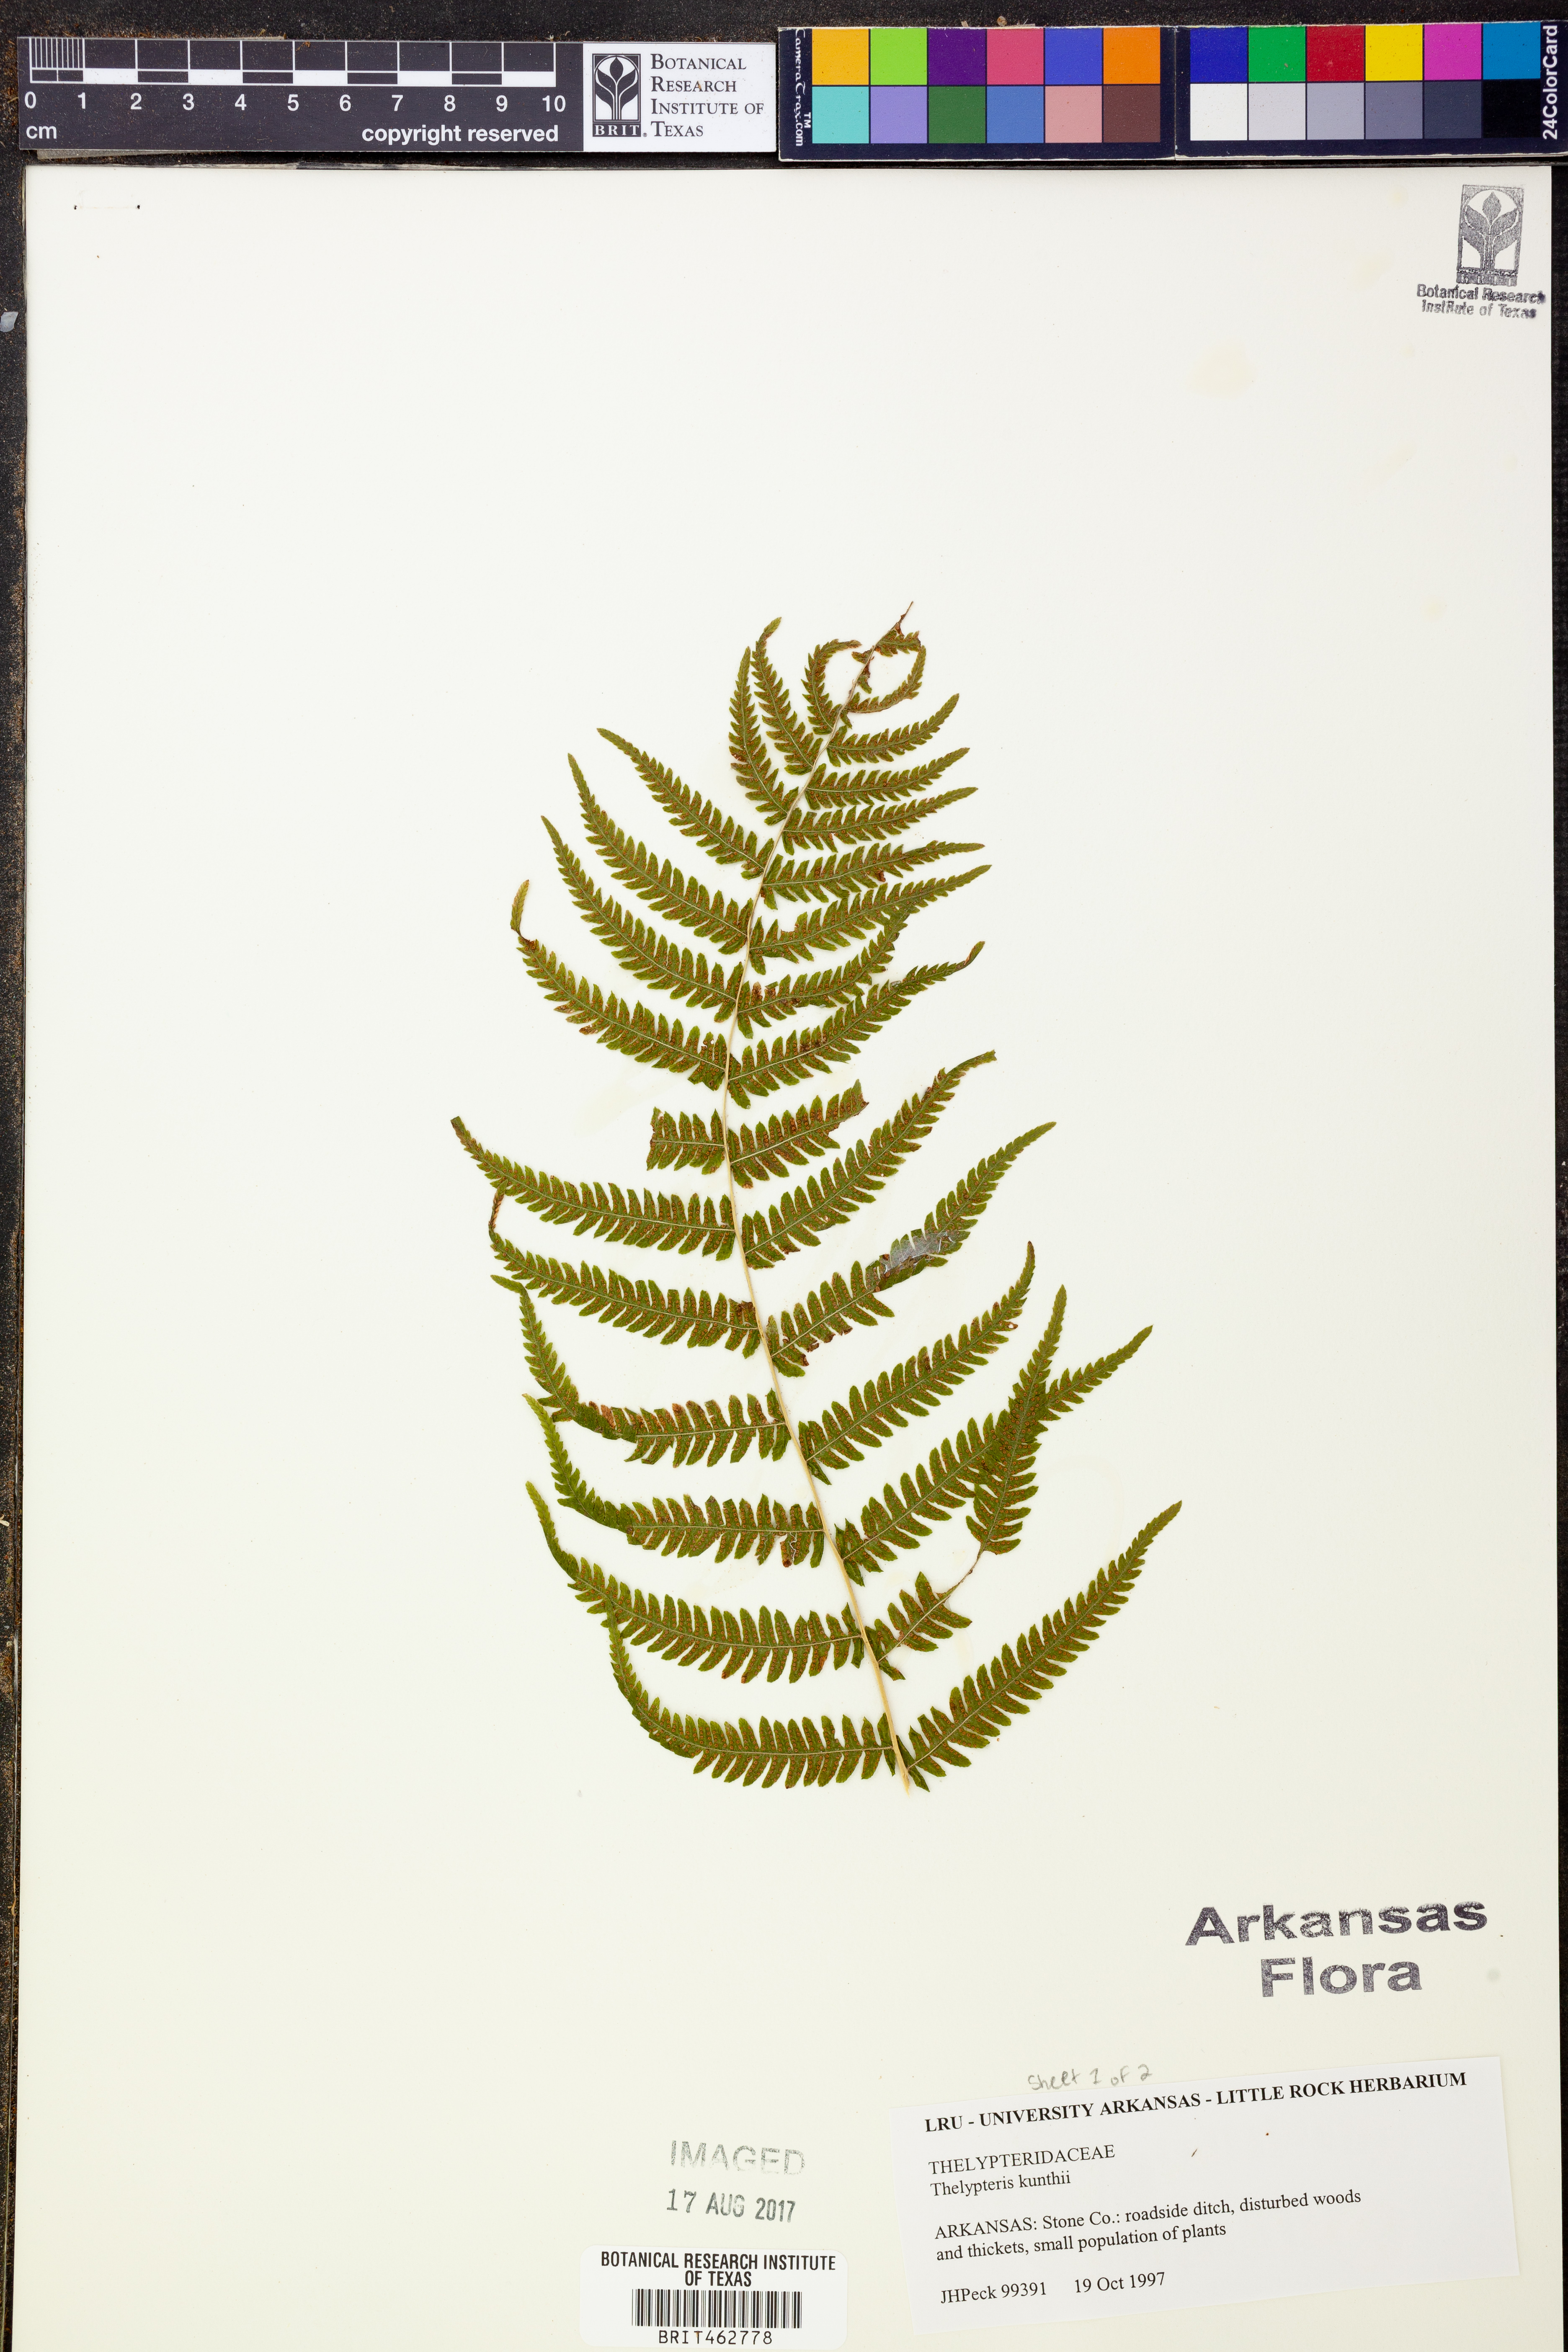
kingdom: Plantae
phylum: Tracheophyta
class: Polypodiopsida
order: Polypodiales
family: Thelypteridaceae
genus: Pelazoneuron
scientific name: Pelazoneuron kunthii
